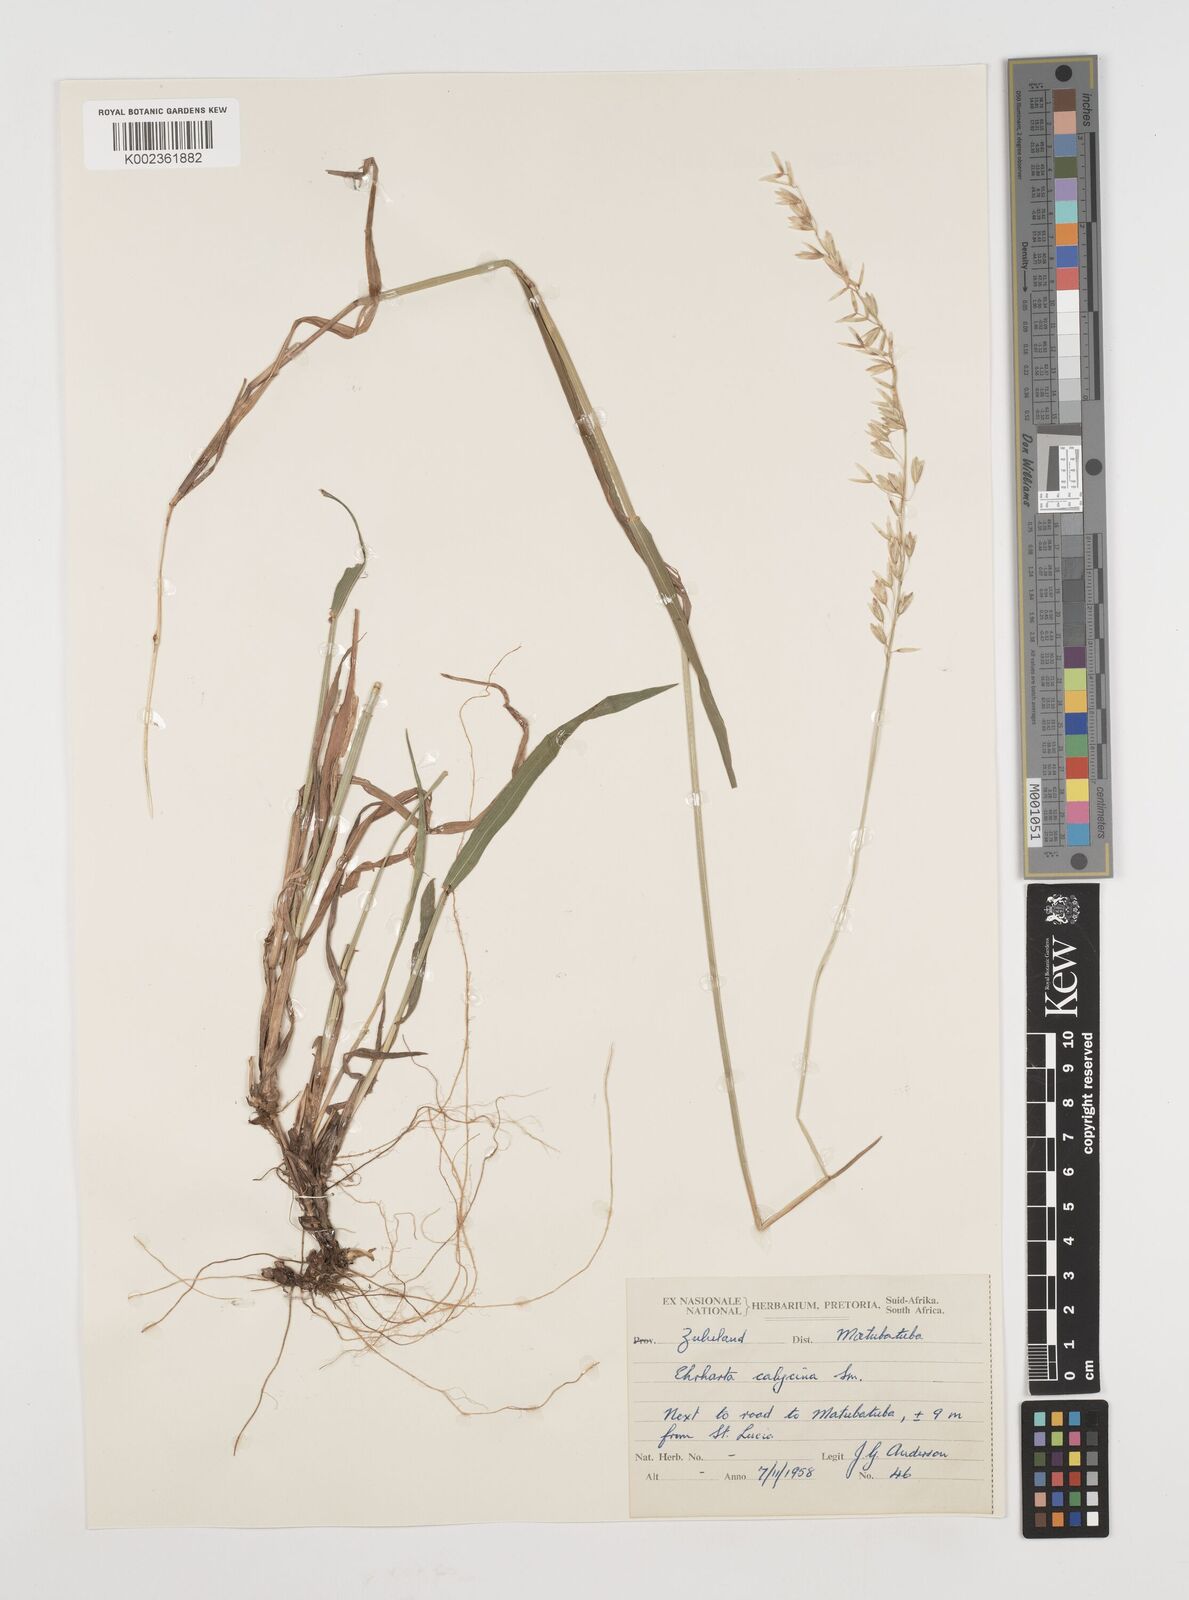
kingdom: Plantae
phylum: Tracheophyta
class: Liliopsida
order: Poales
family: Poaceae
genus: Ehrharta
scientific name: Ehrharta
